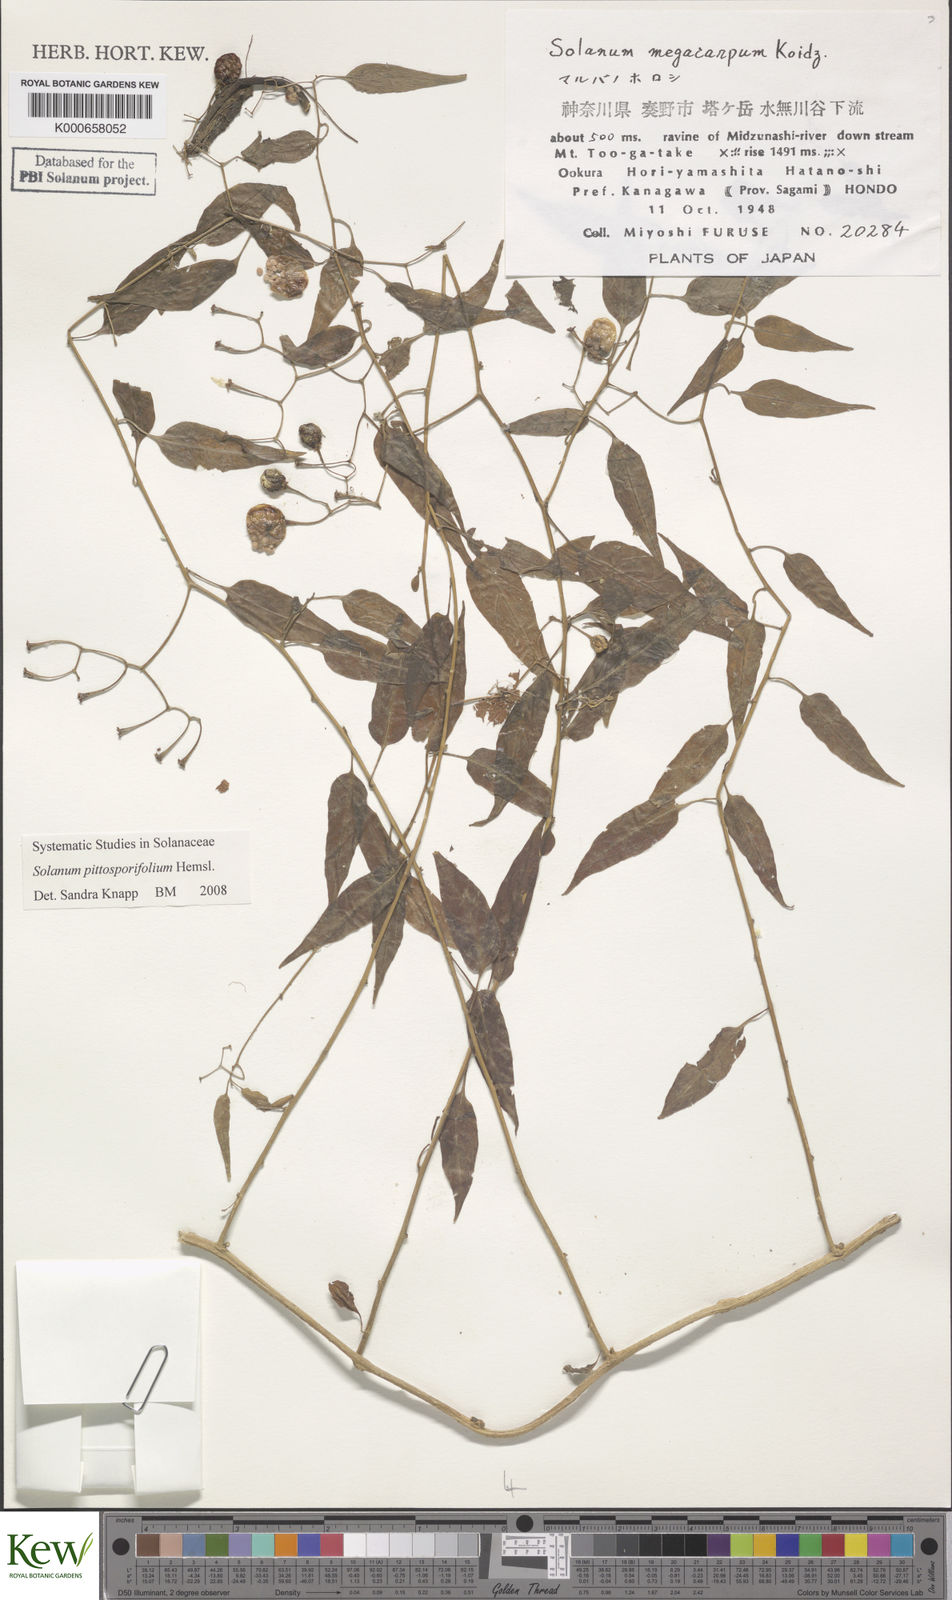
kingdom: Plantae
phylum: Tracheophyta
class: Magnoliopsida
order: Solanales
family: Solanaceae
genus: Solanum
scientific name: Solanum pittosporifolium
